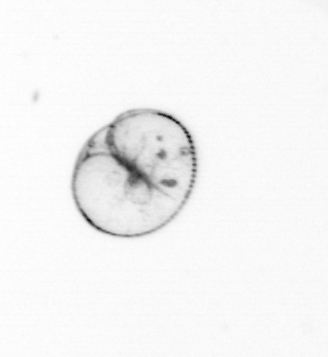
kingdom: Chromista
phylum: Myzozoa
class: Dinophyceae
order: Noctilucales
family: Noctilucaceae
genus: Noctiluca
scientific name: Noctiluca scintillans
